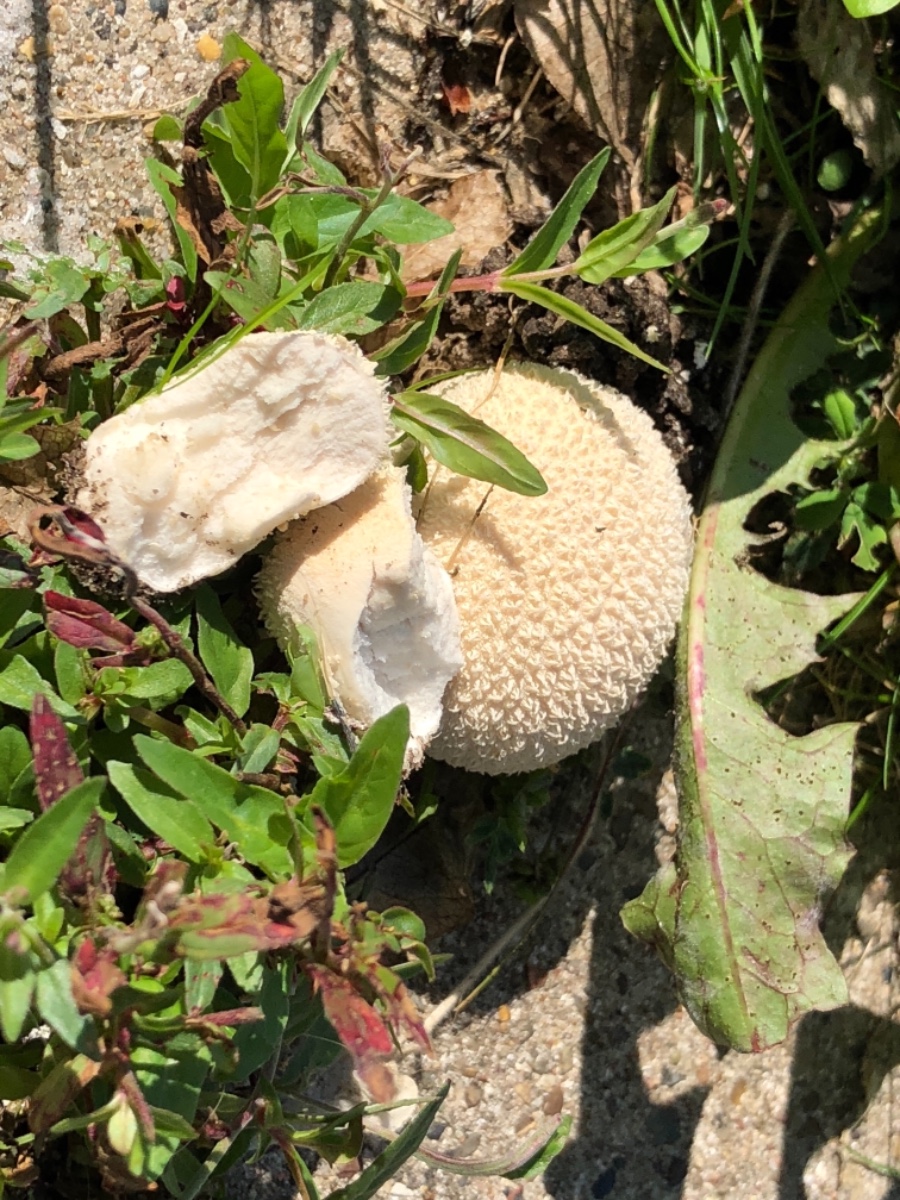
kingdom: Fungi
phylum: Basidiomycota
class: Agaricomycetes
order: Agaricales
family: Lycoperdaceae
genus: Lycoperdon
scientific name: Lycoperdon pratense
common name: flad støvbold
